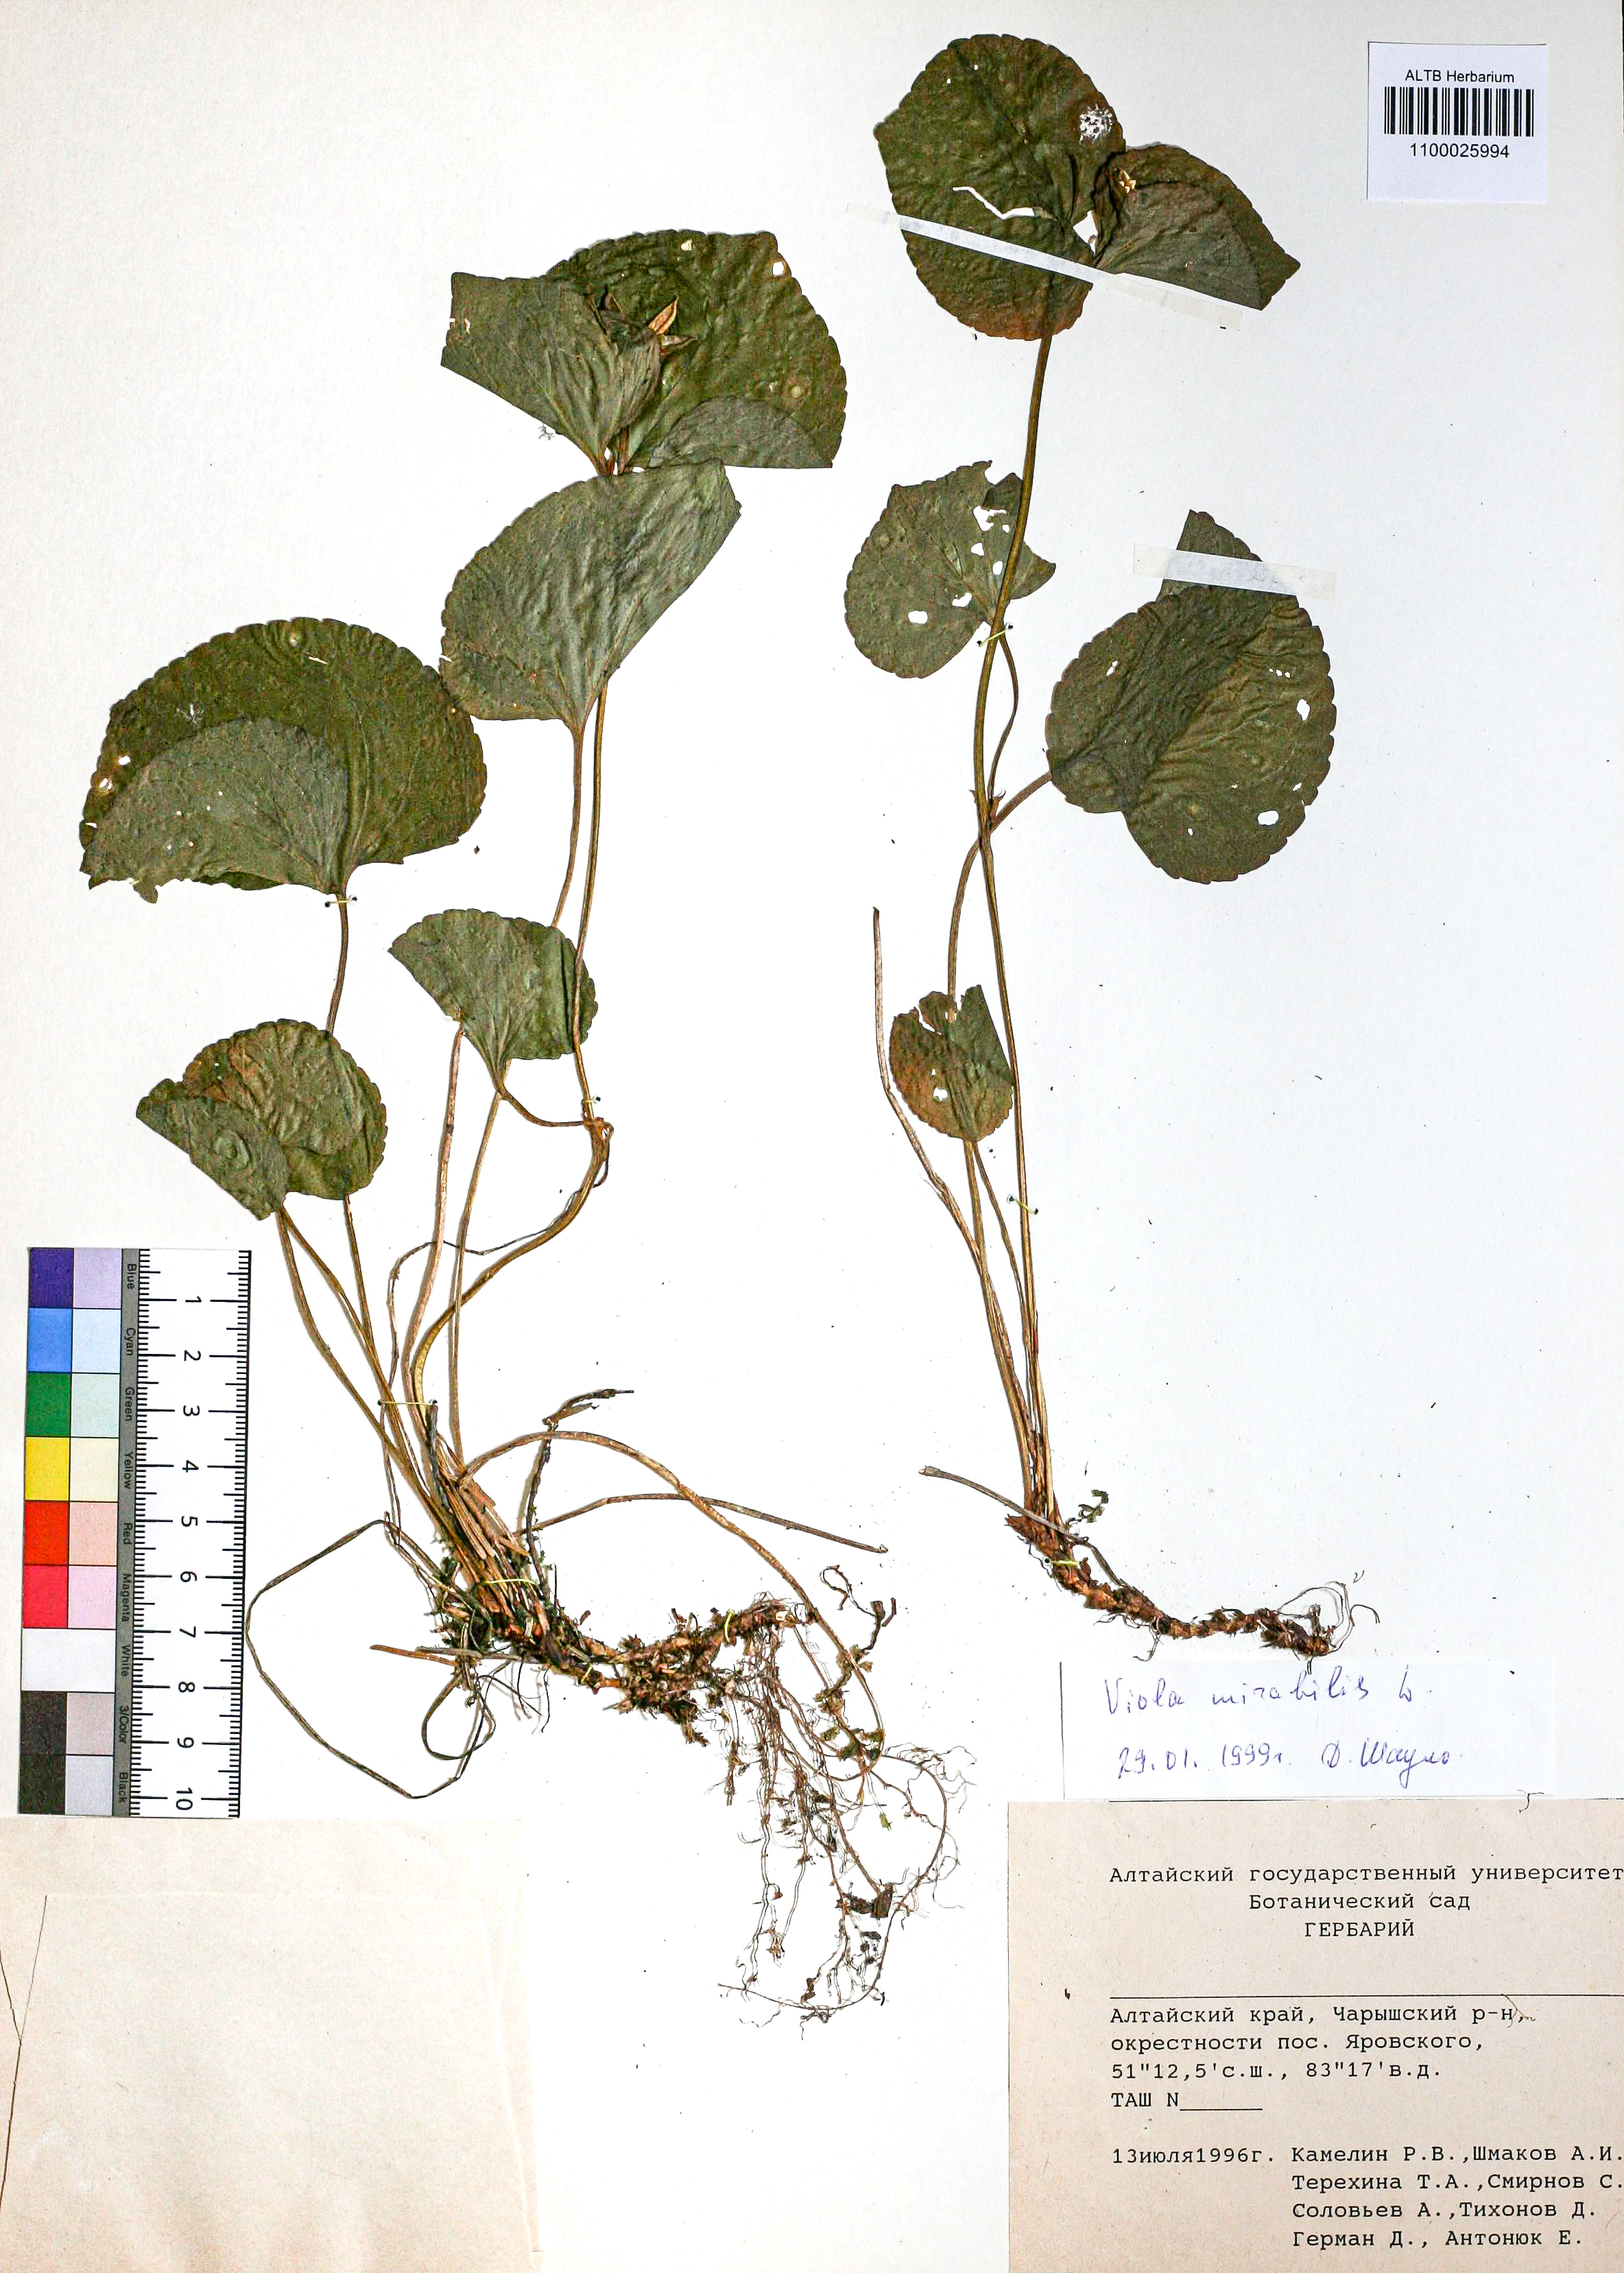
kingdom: Plantae
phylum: Tracheophyta
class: Magnoliopsida
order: Malpighiales
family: Violaceae
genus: Viola
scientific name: Viola mirabilis
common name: Wonder violet
